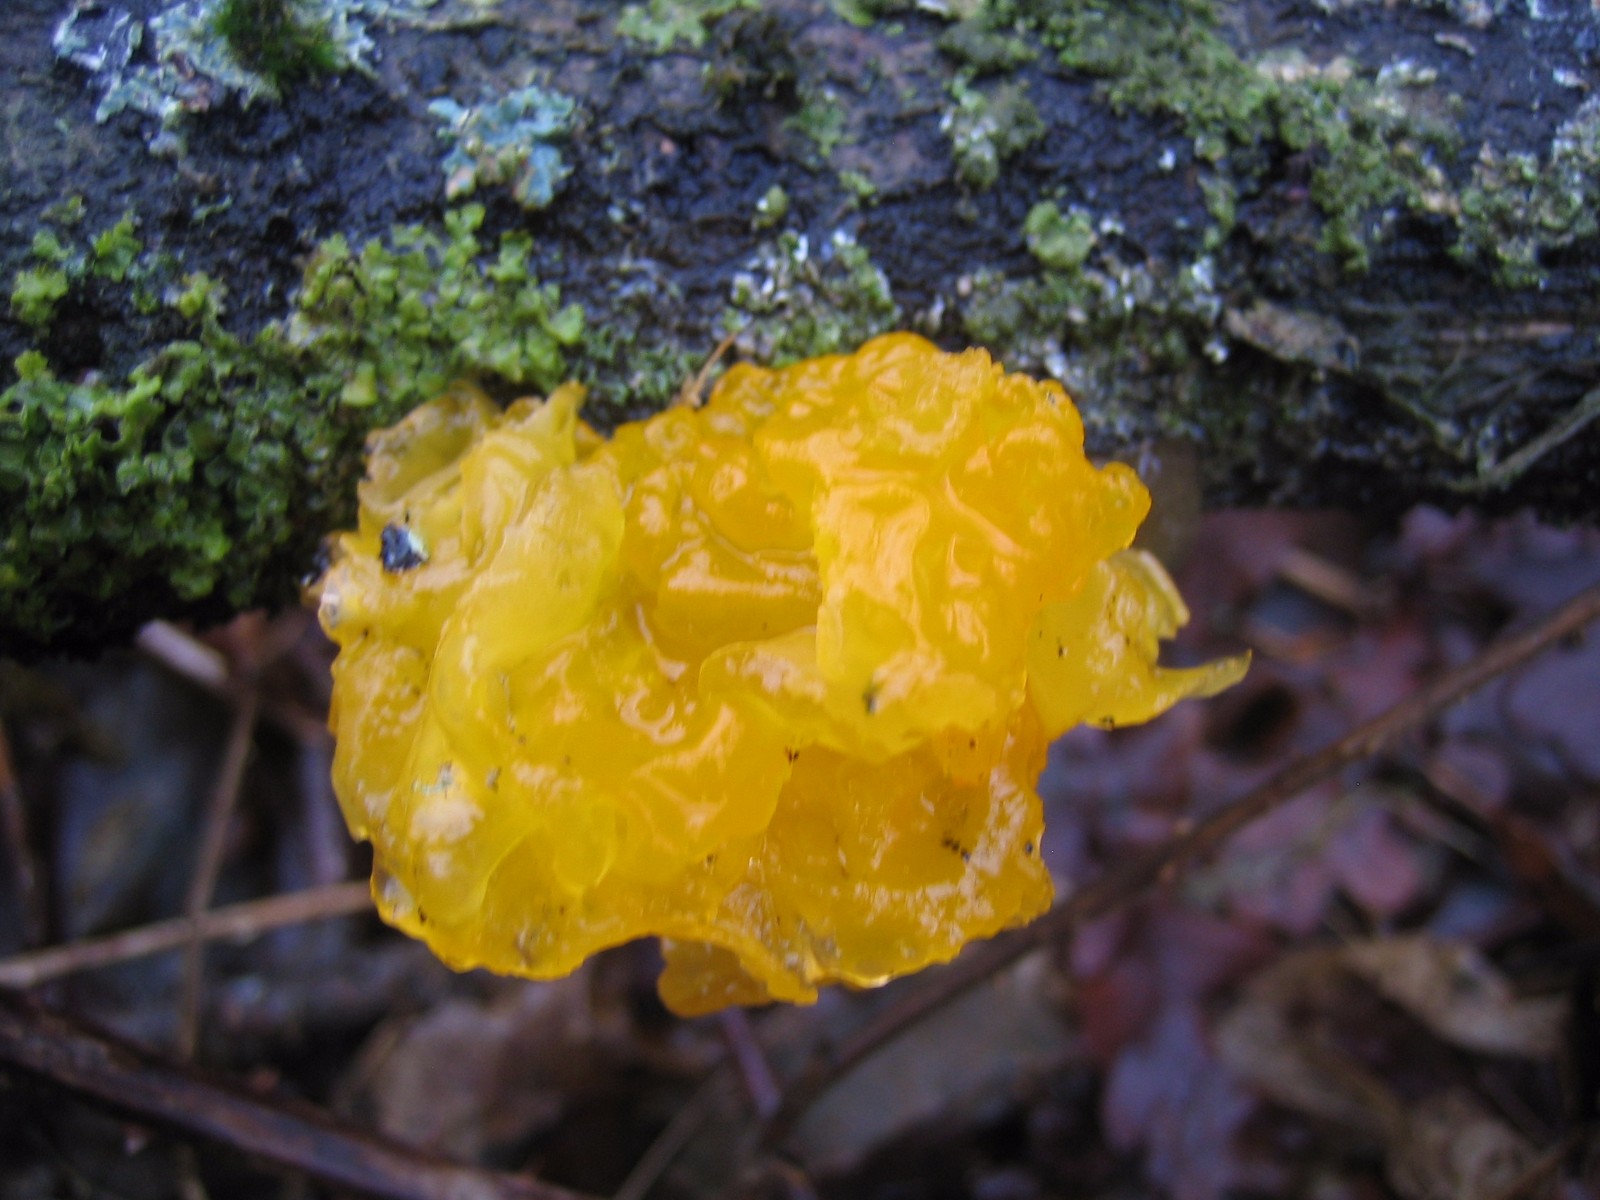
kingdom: Fungi
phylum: Basidiomycota
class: Tremellomycetes
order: Tremellales
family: Tremellaceae
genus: Tremella
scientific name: Tremella mesenterica
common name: gul bævresvamp
